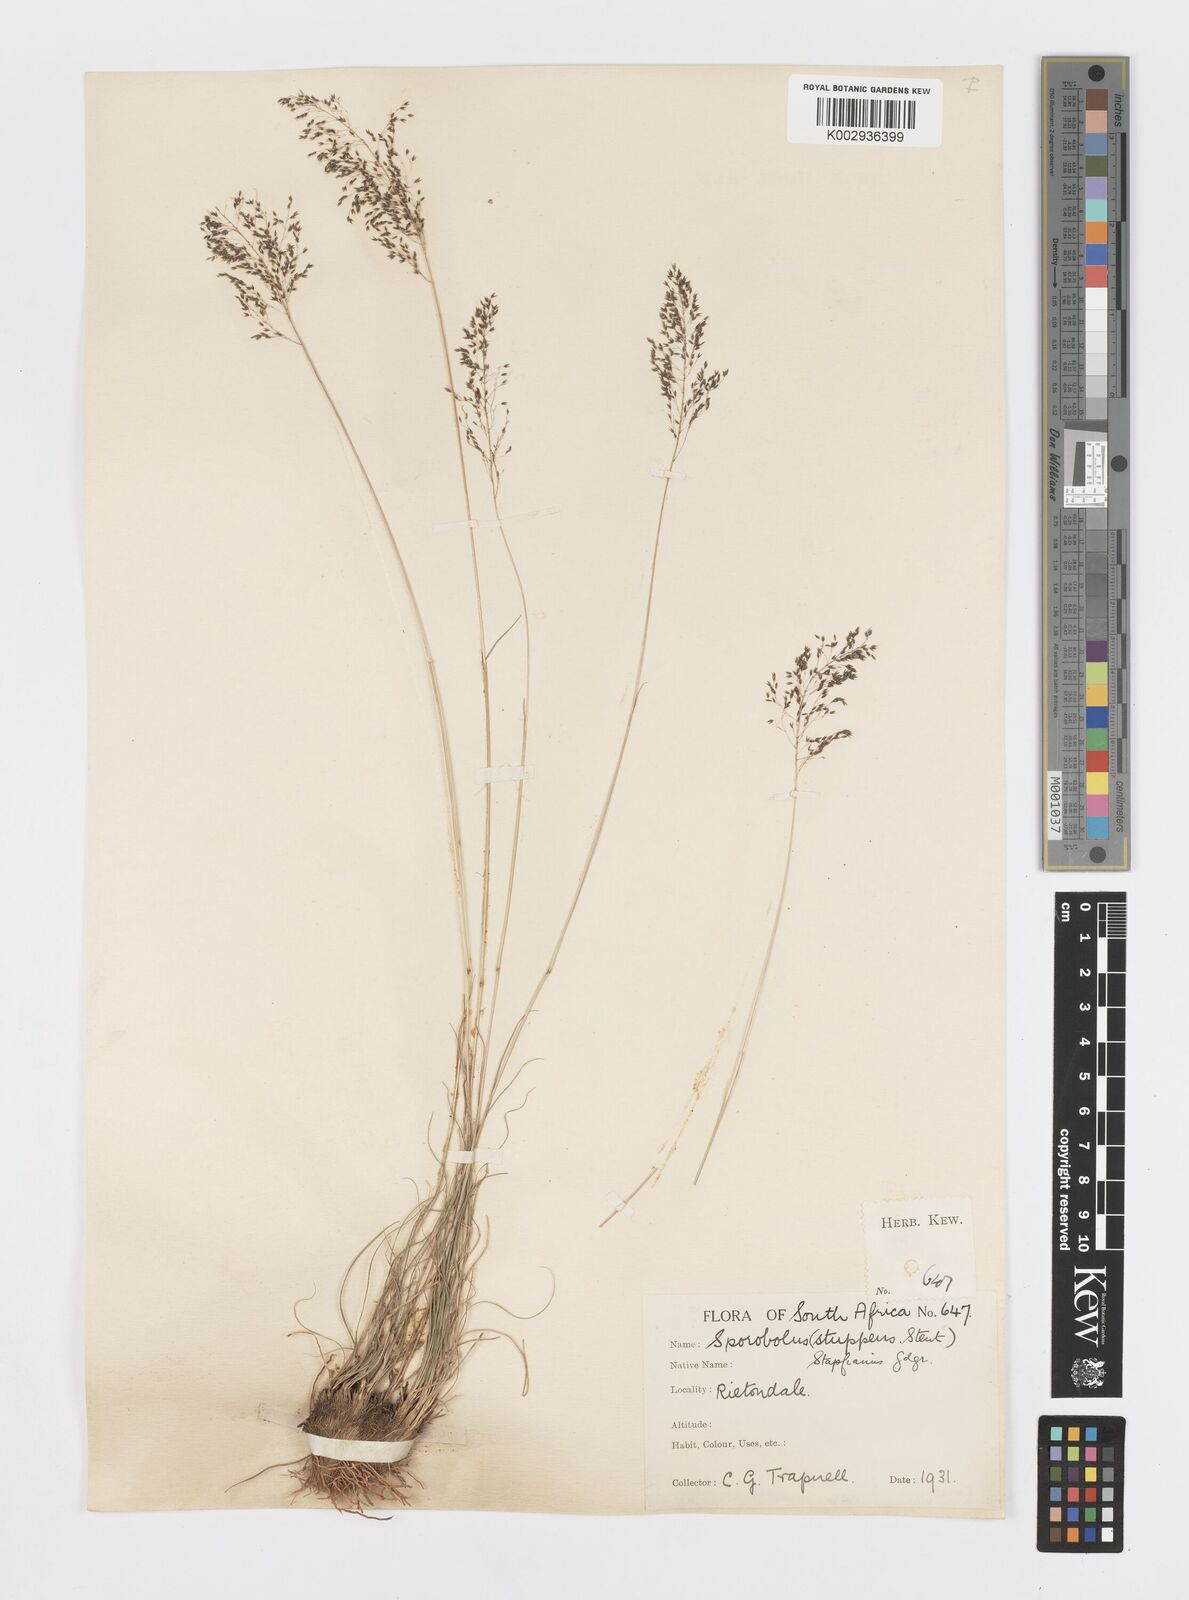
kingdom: Plantae
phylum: Tracheophyta
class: Liliopsida
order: Poales
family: Poaceae
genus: Sporobolus
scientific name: Sporobolus stapfianus
